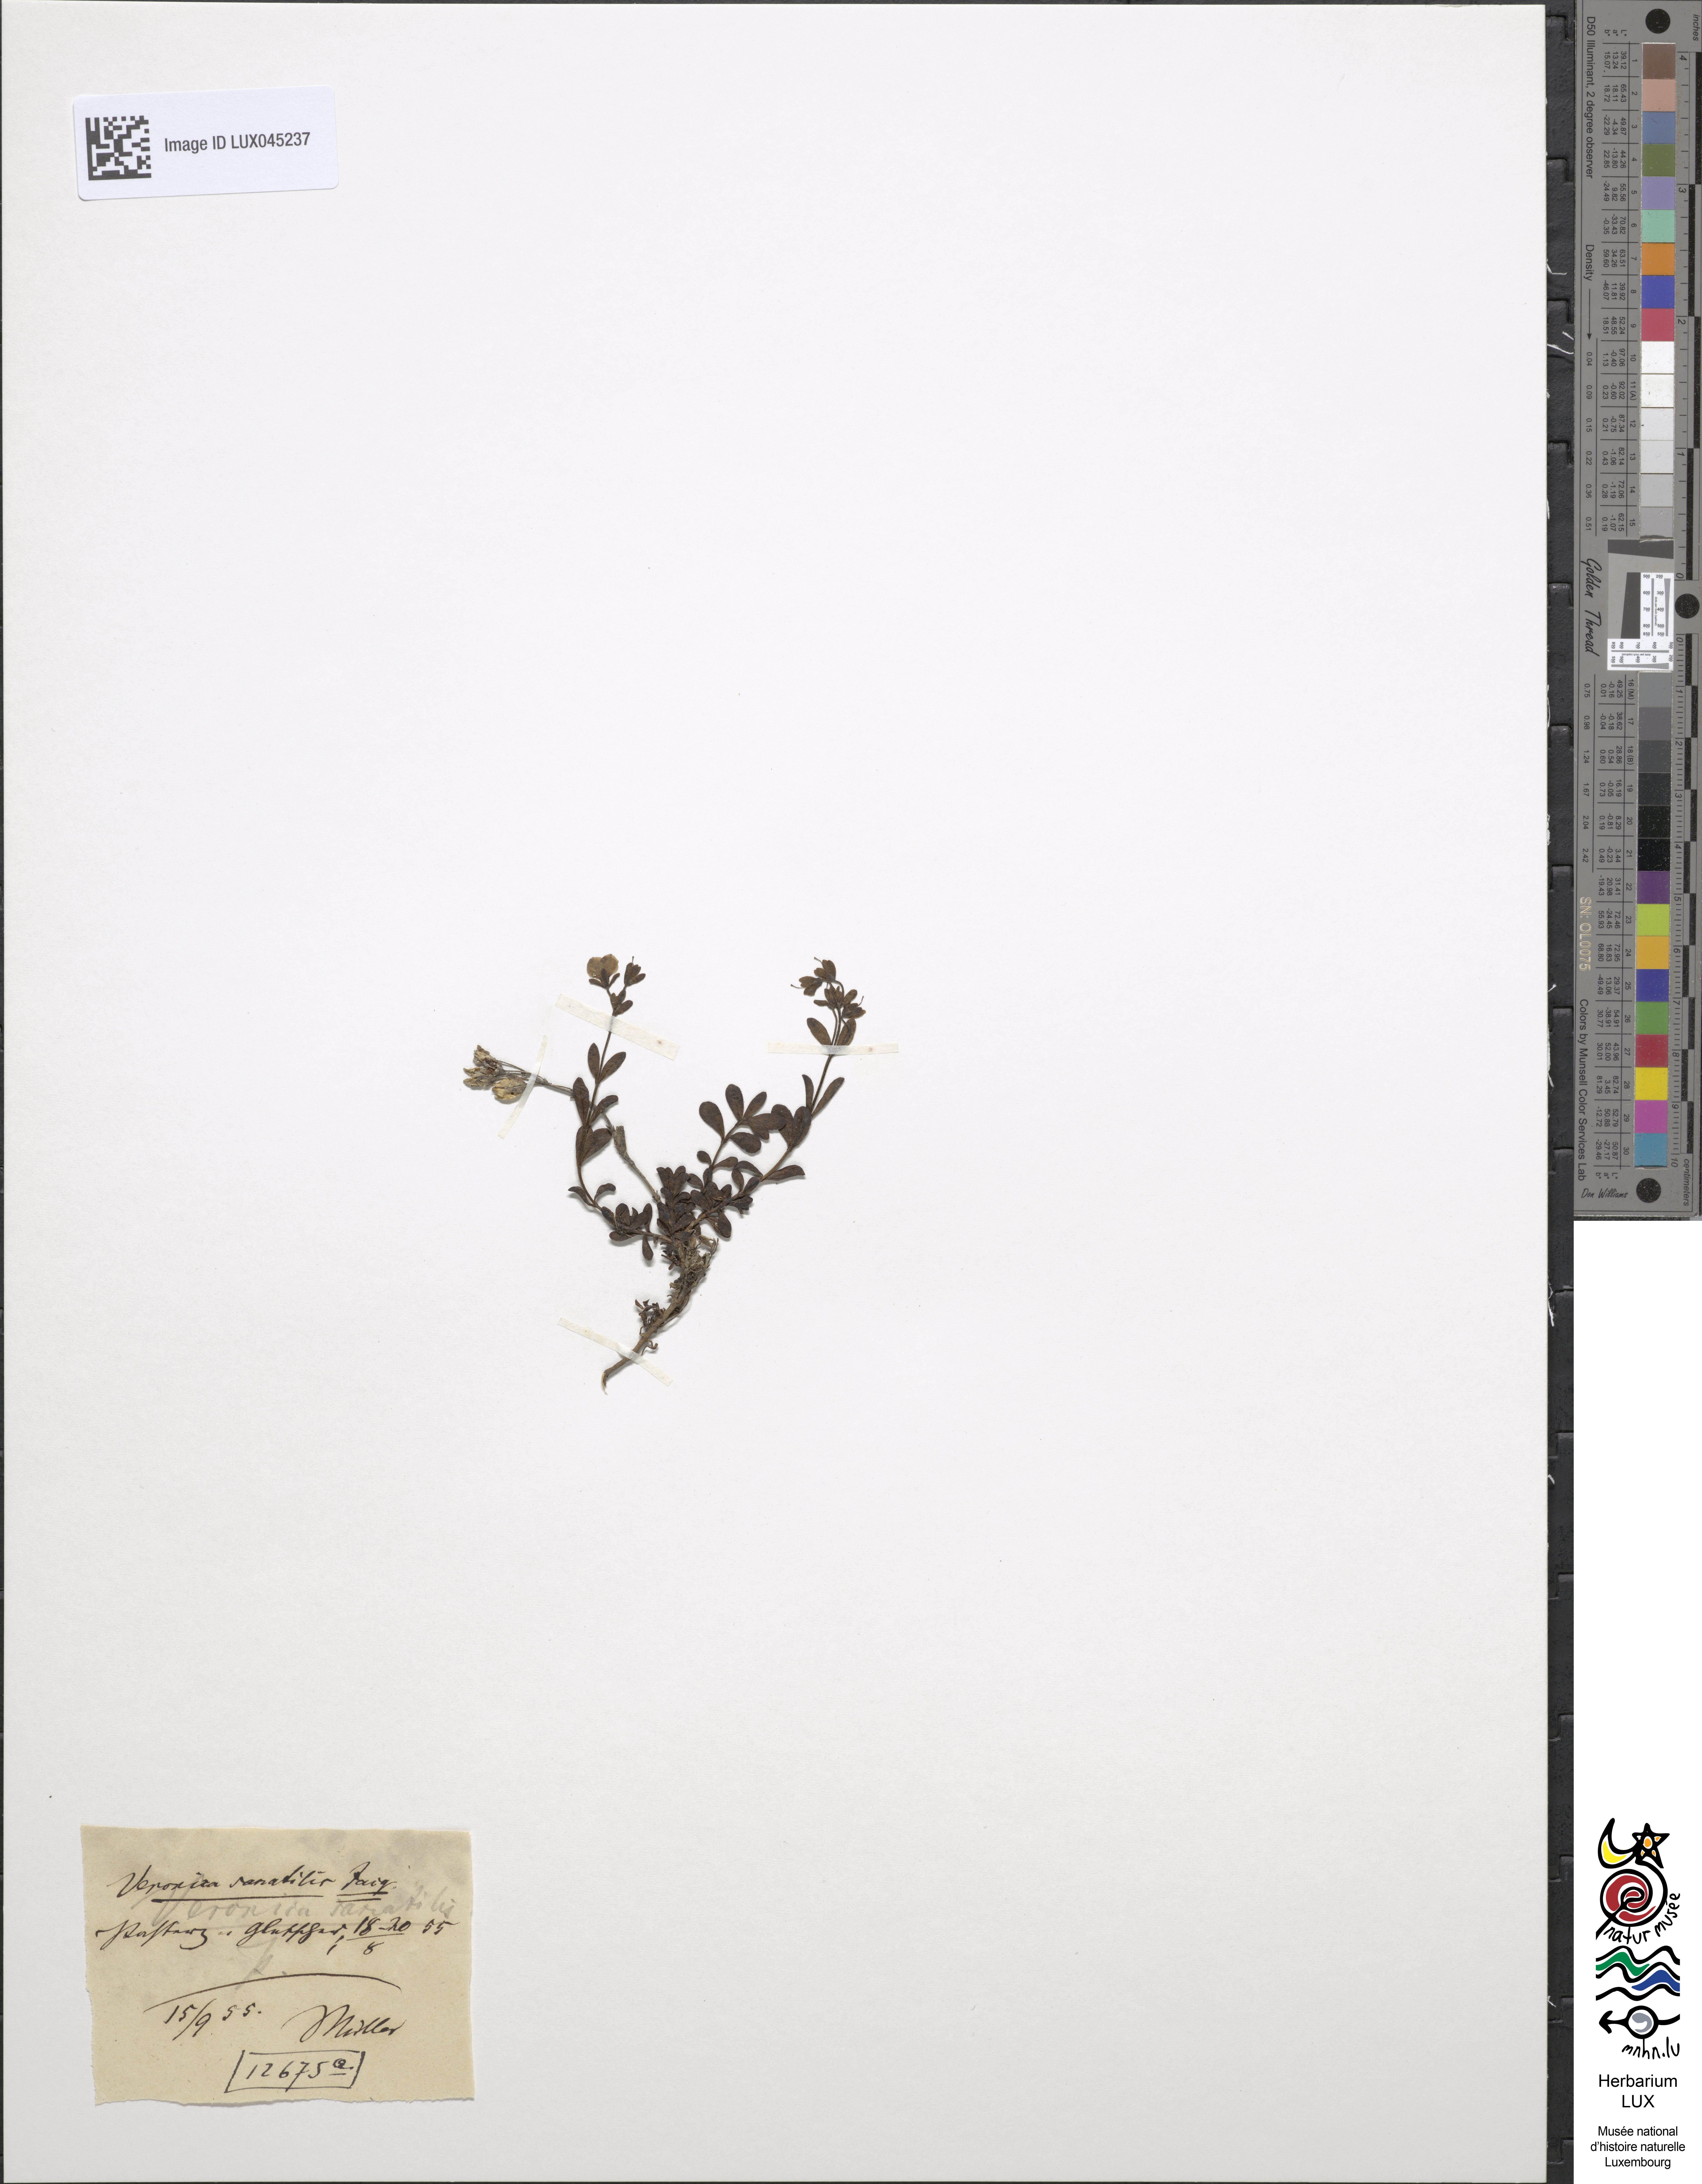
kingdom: Plantae
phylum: Tracheophyta
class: Magnoliopsida
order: Lamiales
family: Plantaginaceae
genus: Veronica
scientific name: Veronica fruticans
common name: Rock speedwell
